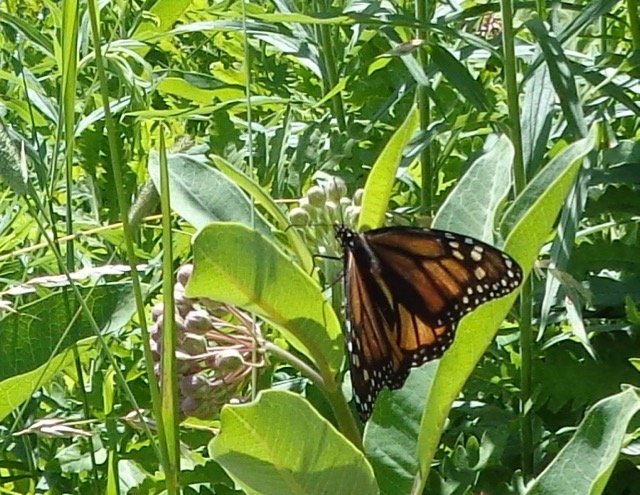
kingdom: Animalia
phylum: Arthropoda
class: Insecta
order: Lepidoptera
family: Nymphalidae
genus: Danaus
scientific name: Danaus plexippus
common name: Monarch
